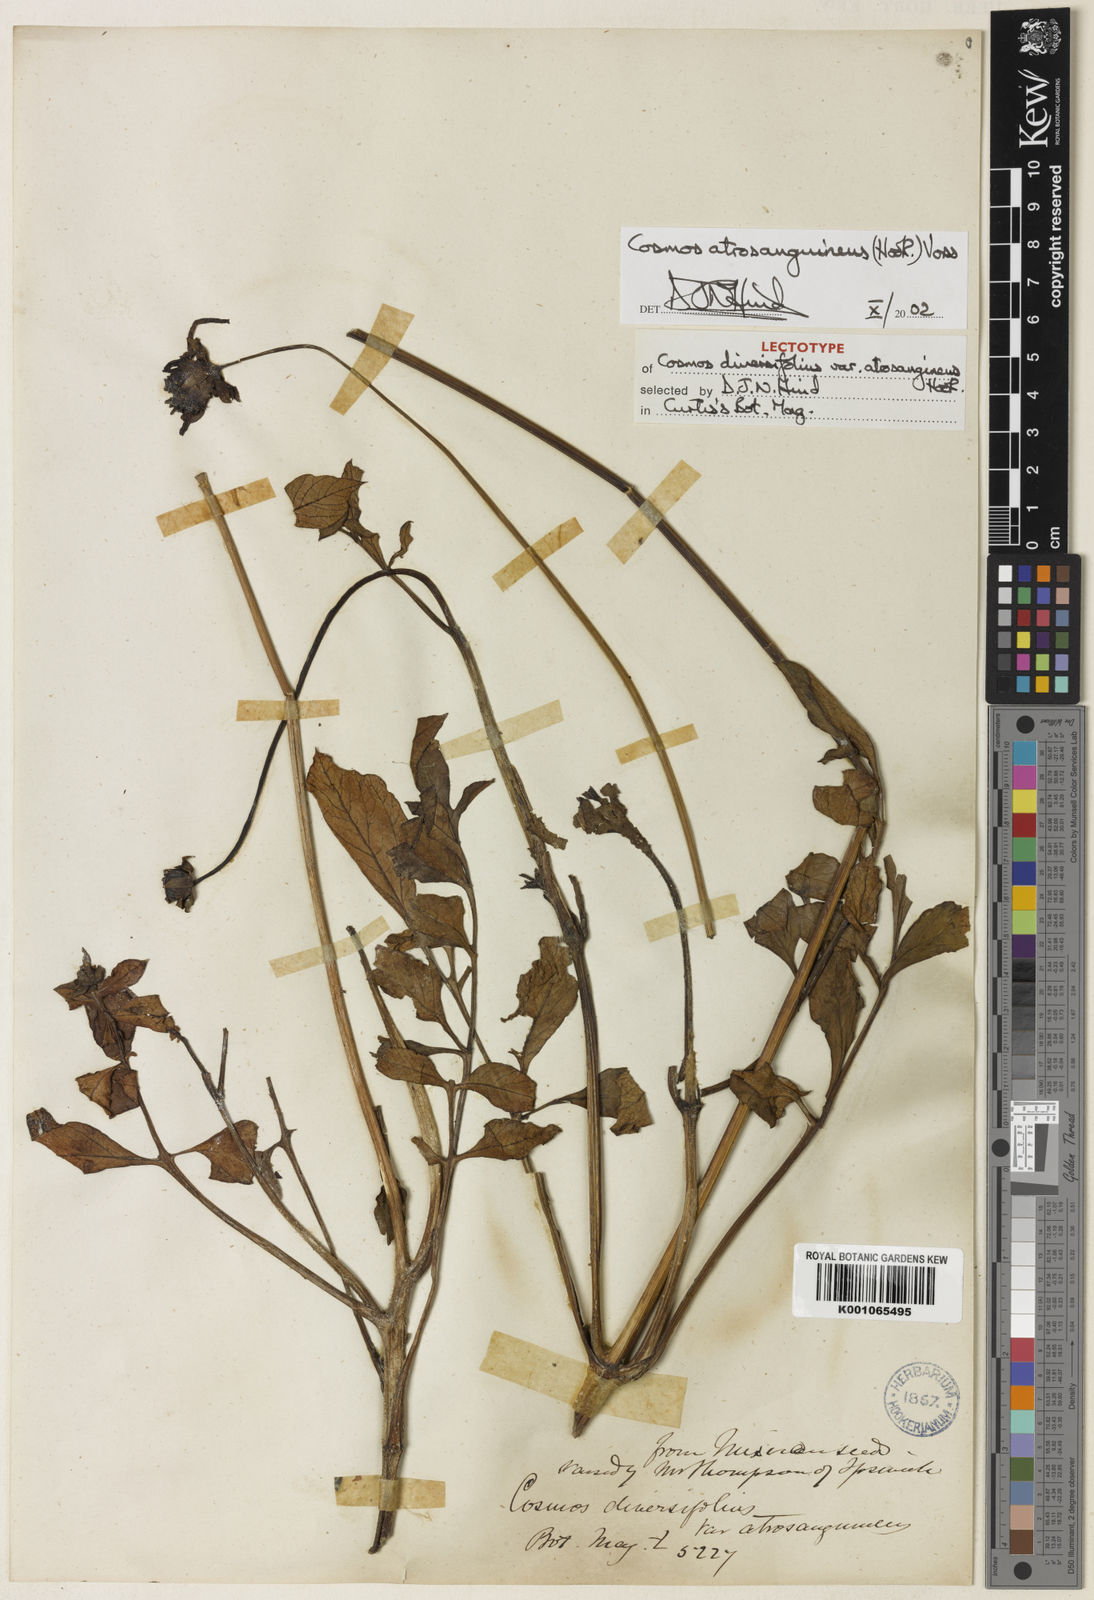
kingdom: Plantae
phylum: Tracheophyta
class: Magnoliopsida
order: Asterales
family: Asteraceae
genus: Cosmos
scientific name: Cosmos atrosanguineus
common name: Chocolate cosmos
